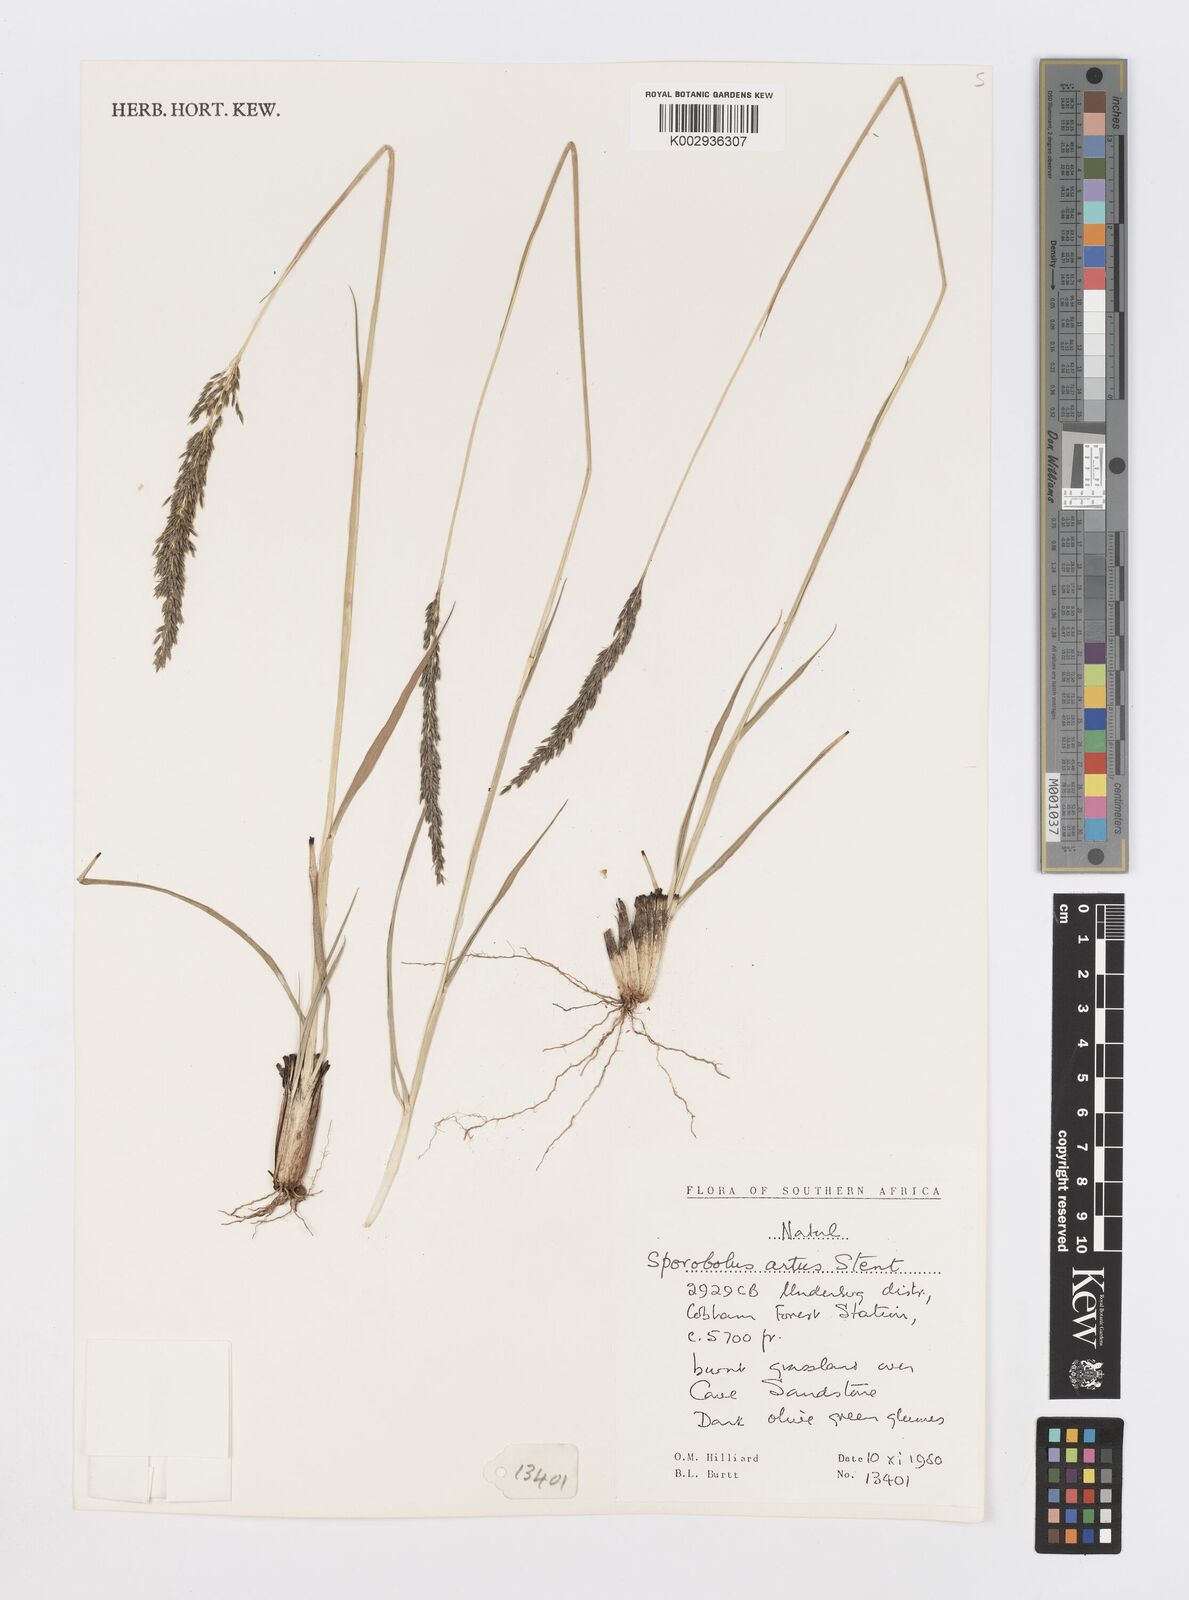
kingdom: Plantae
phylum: Tracheophyta
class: Liliopsida
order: Poales
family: Poaceae
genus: Sporobolus
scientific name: Sporobolus subulatus
